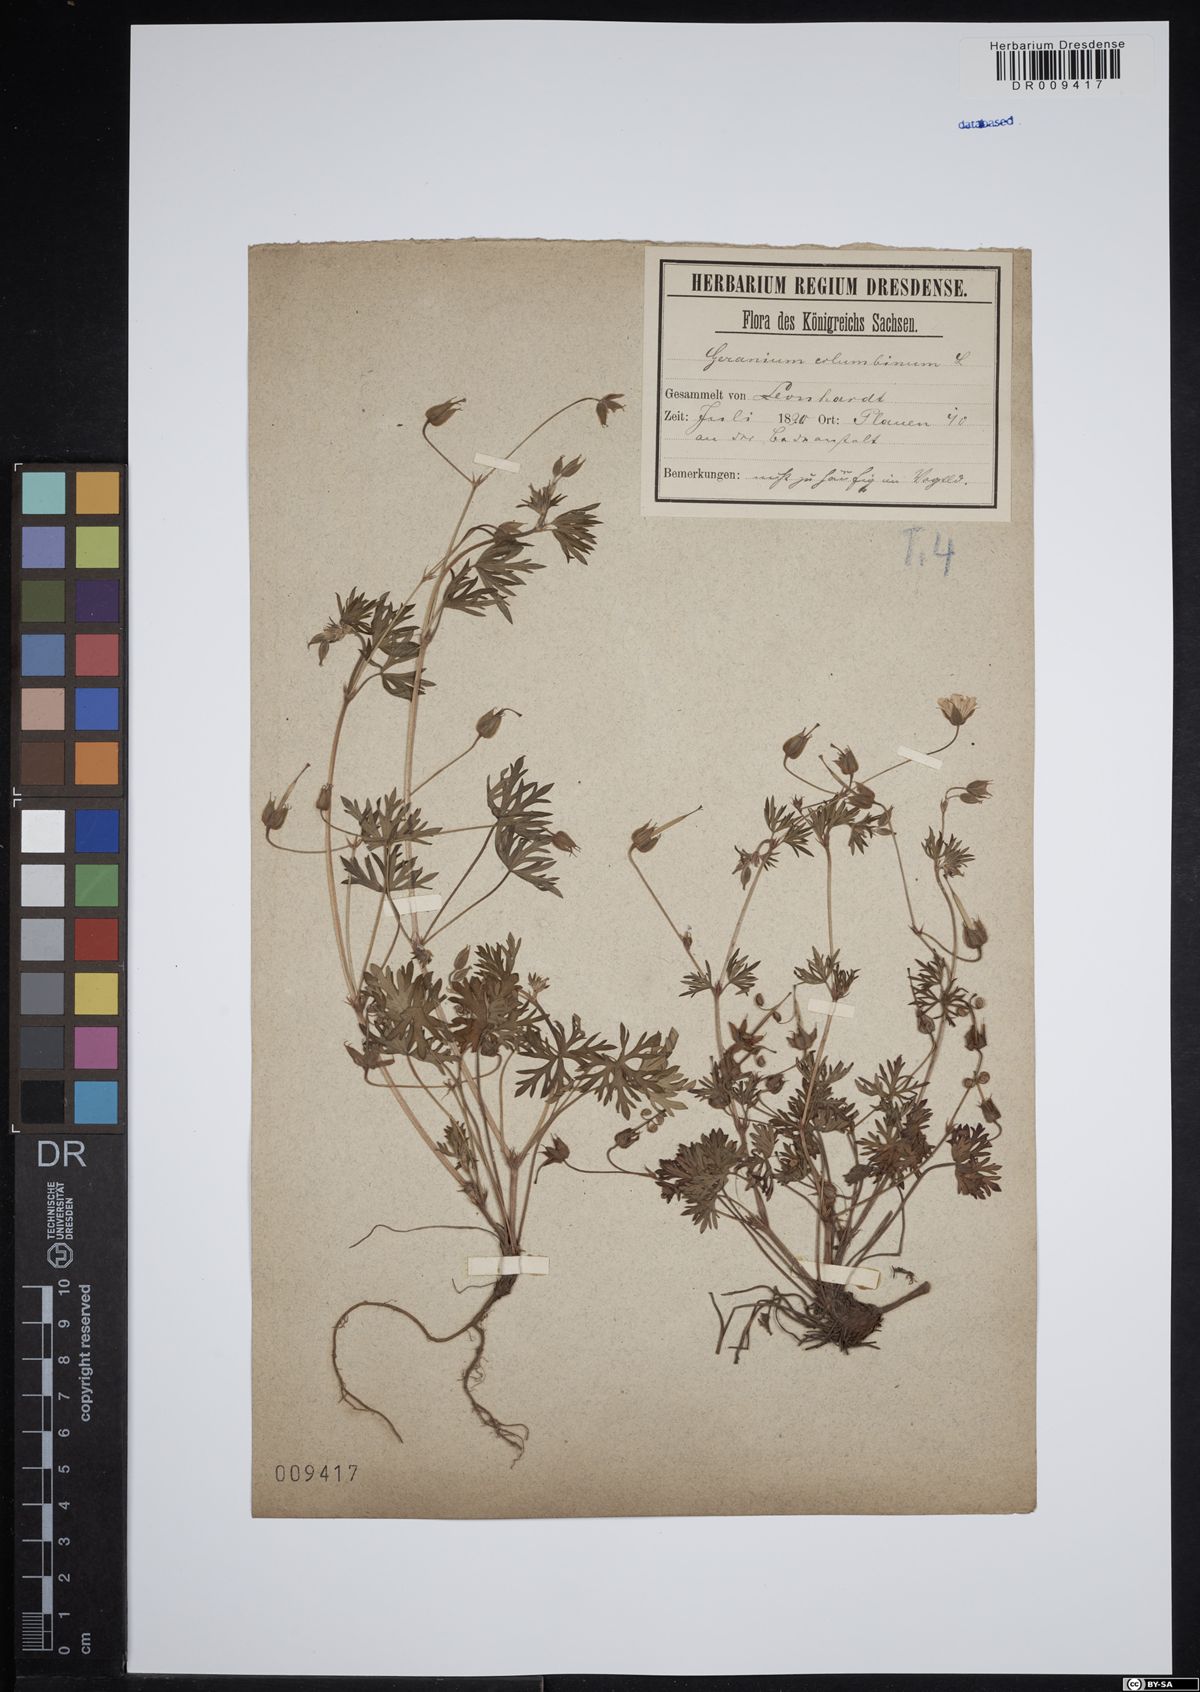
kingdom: Plantae
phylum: Tracheophyta
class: Magnoliopsida
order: Geraniales
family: Geraniaceae
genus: Geranium
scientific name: Geranium columbinum
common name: Long-stalked crane's-bill
